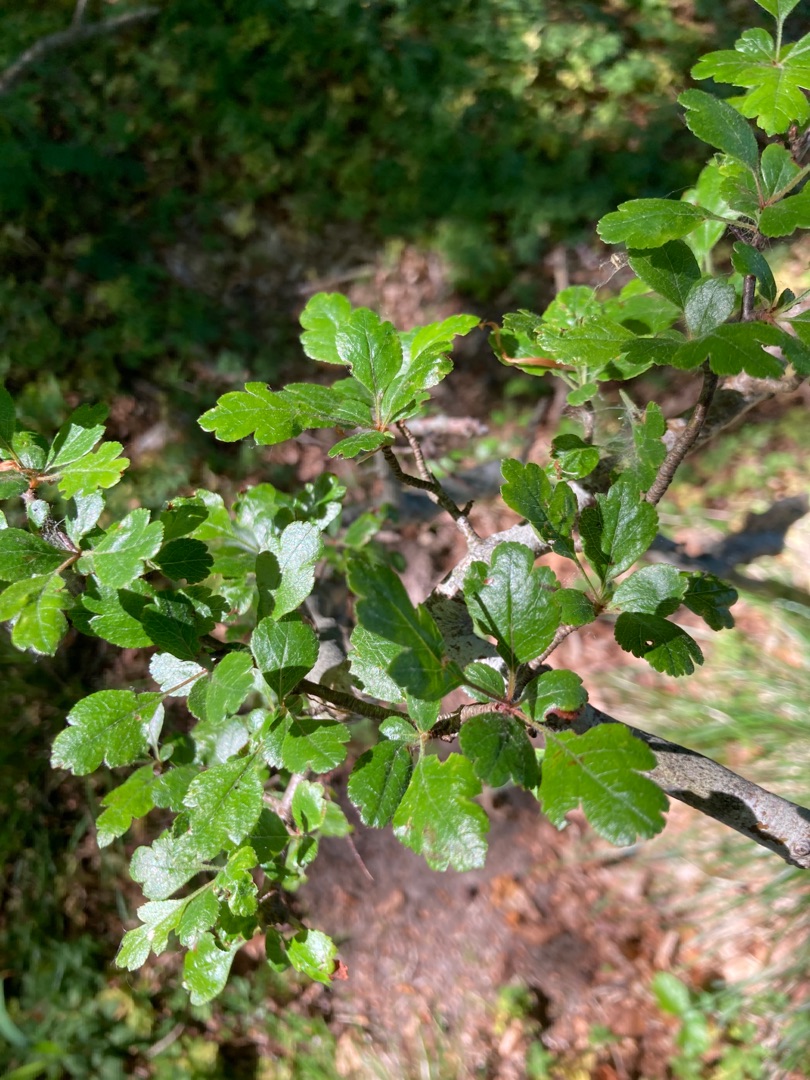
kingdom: Plantae
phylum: Tracheophyta
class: Magnoliopsida
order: Rosales
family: Rosaceae
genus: Crataegus
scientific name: Crataegus laevigata
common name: Almindelig hvidtjørn
